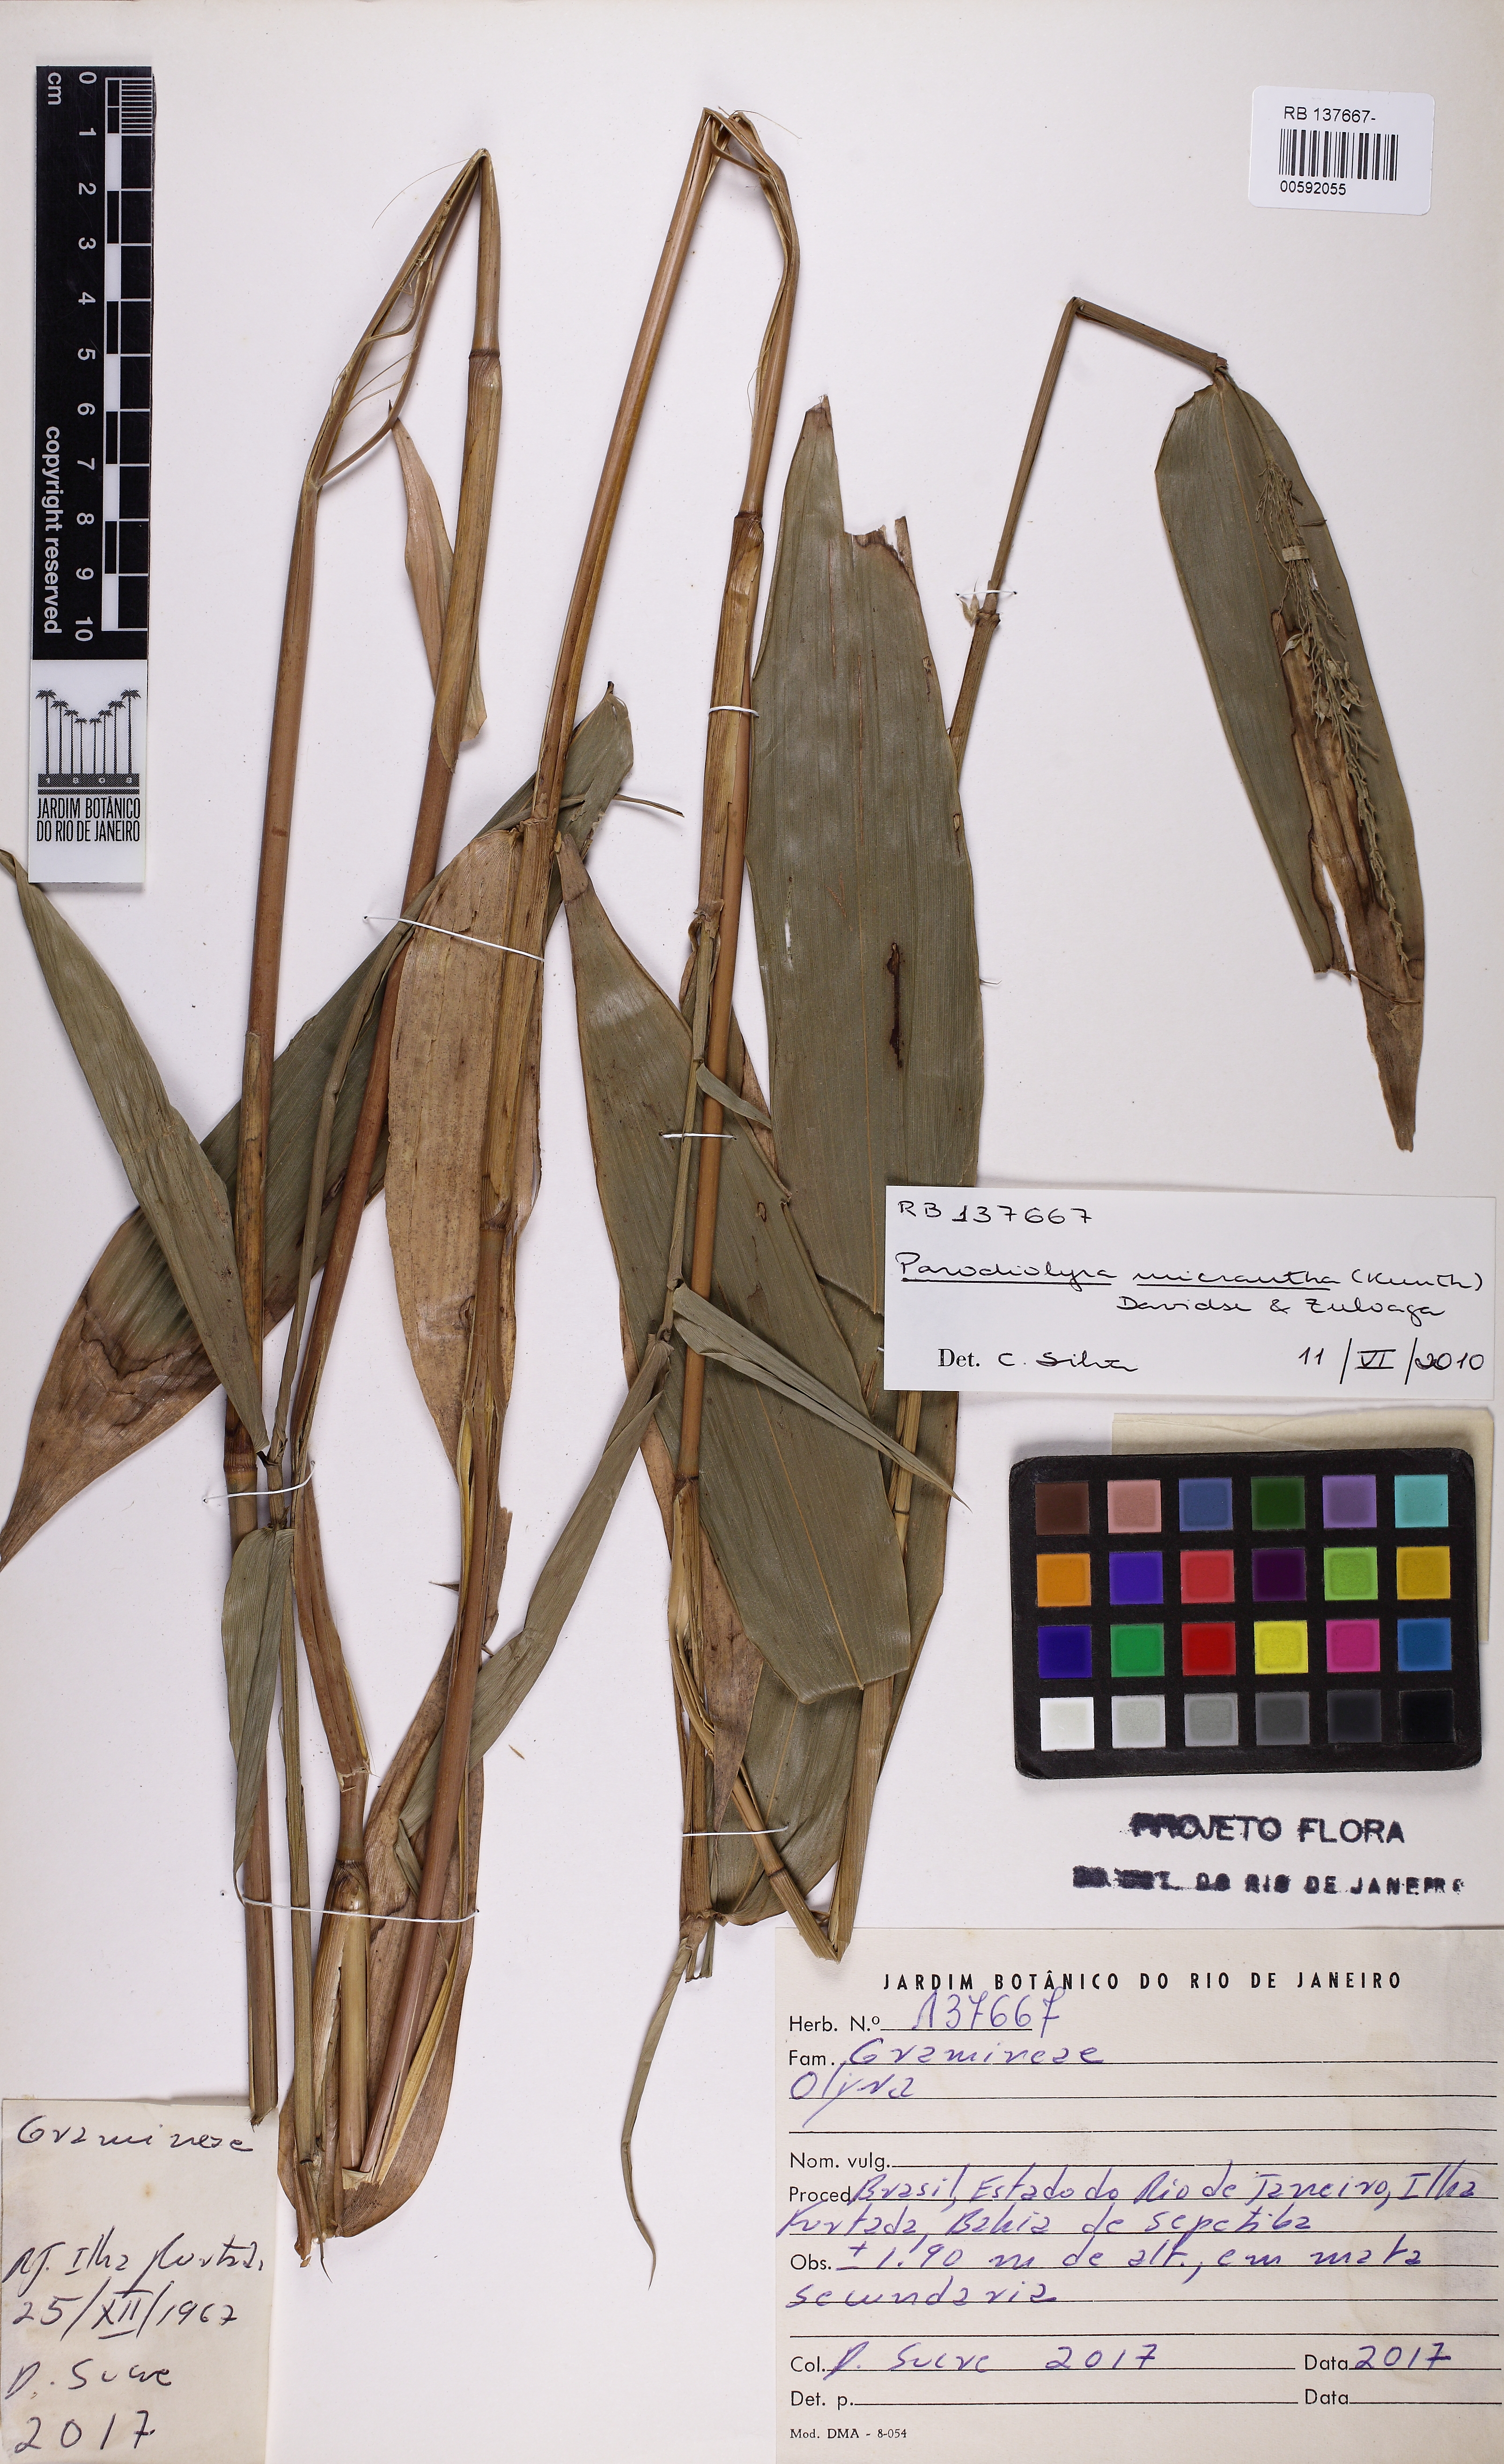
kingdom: Plantae
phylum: Tracheophyta
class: Liliopsida
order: Poales
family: Poaceae
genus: Taquara
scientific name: Taquara micrantha
